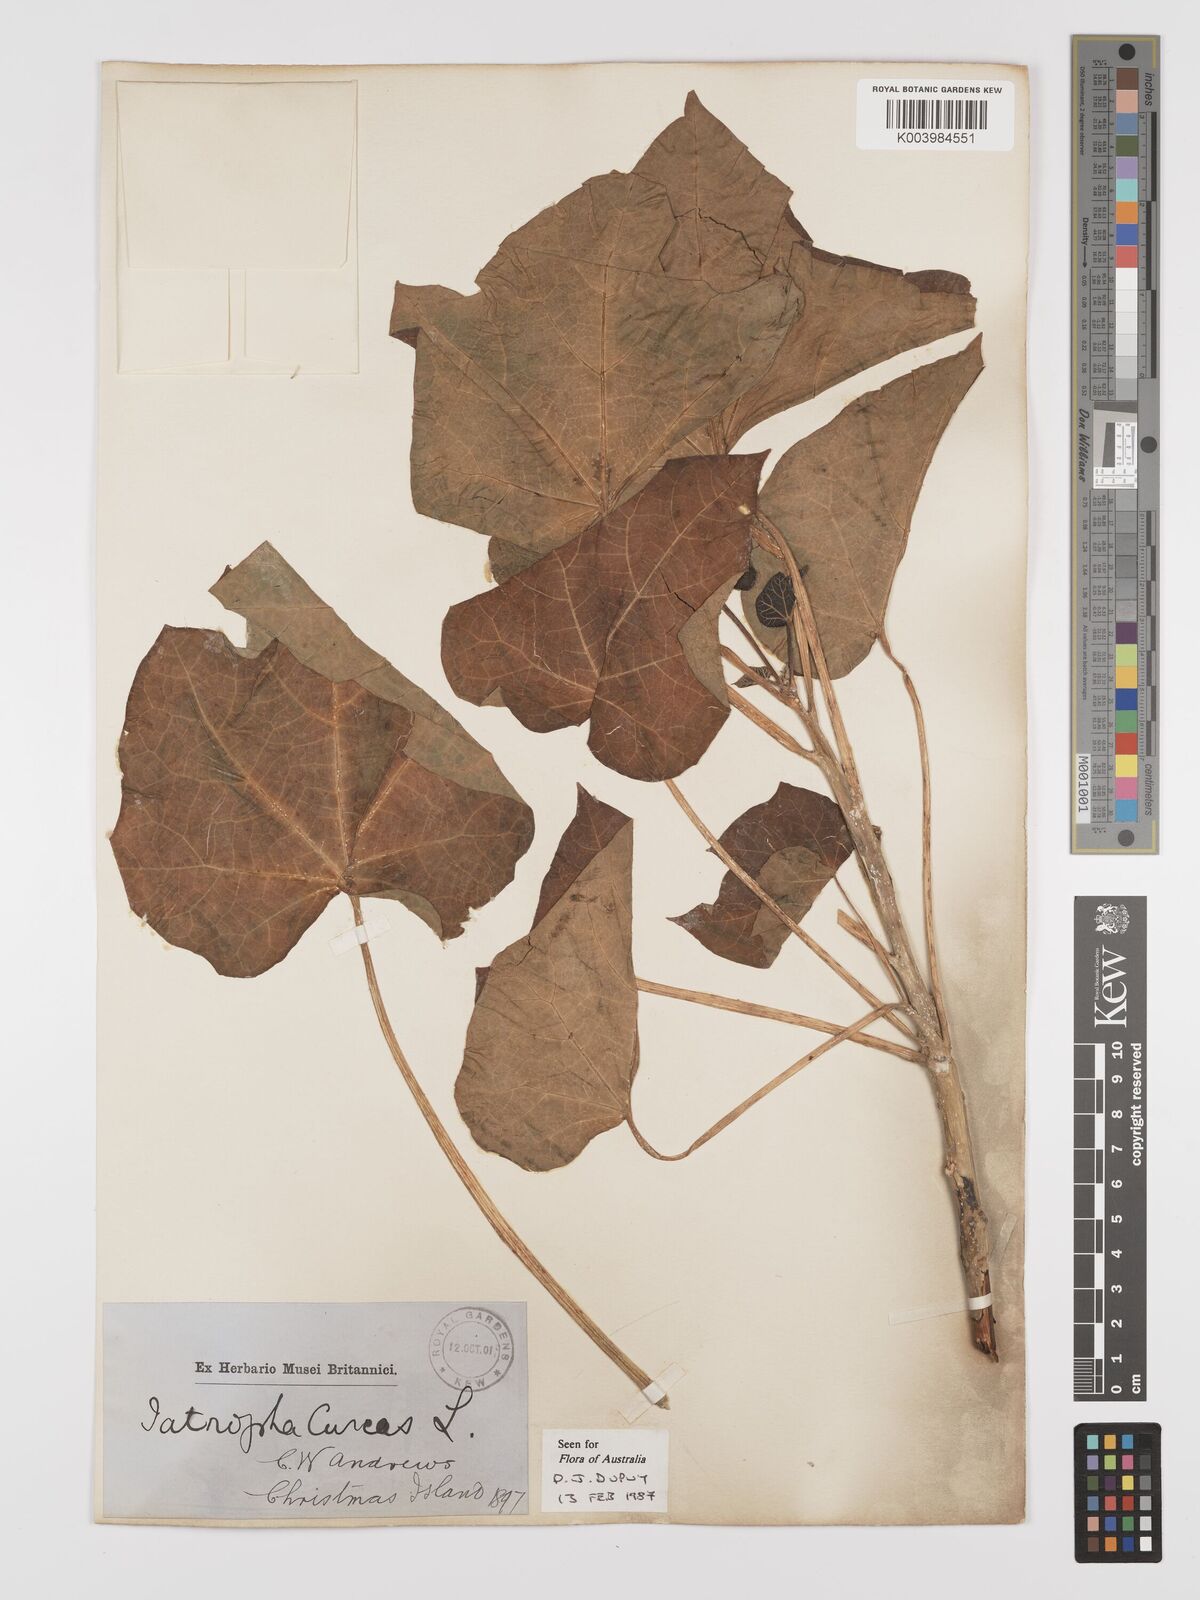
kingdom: Plantae
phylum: Tracheophyta
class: Magnoliopsida
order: Malpighiales
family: Euphorbiaceae
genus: Jatropha
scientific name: Jatropha curcas
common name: Barbados nut
